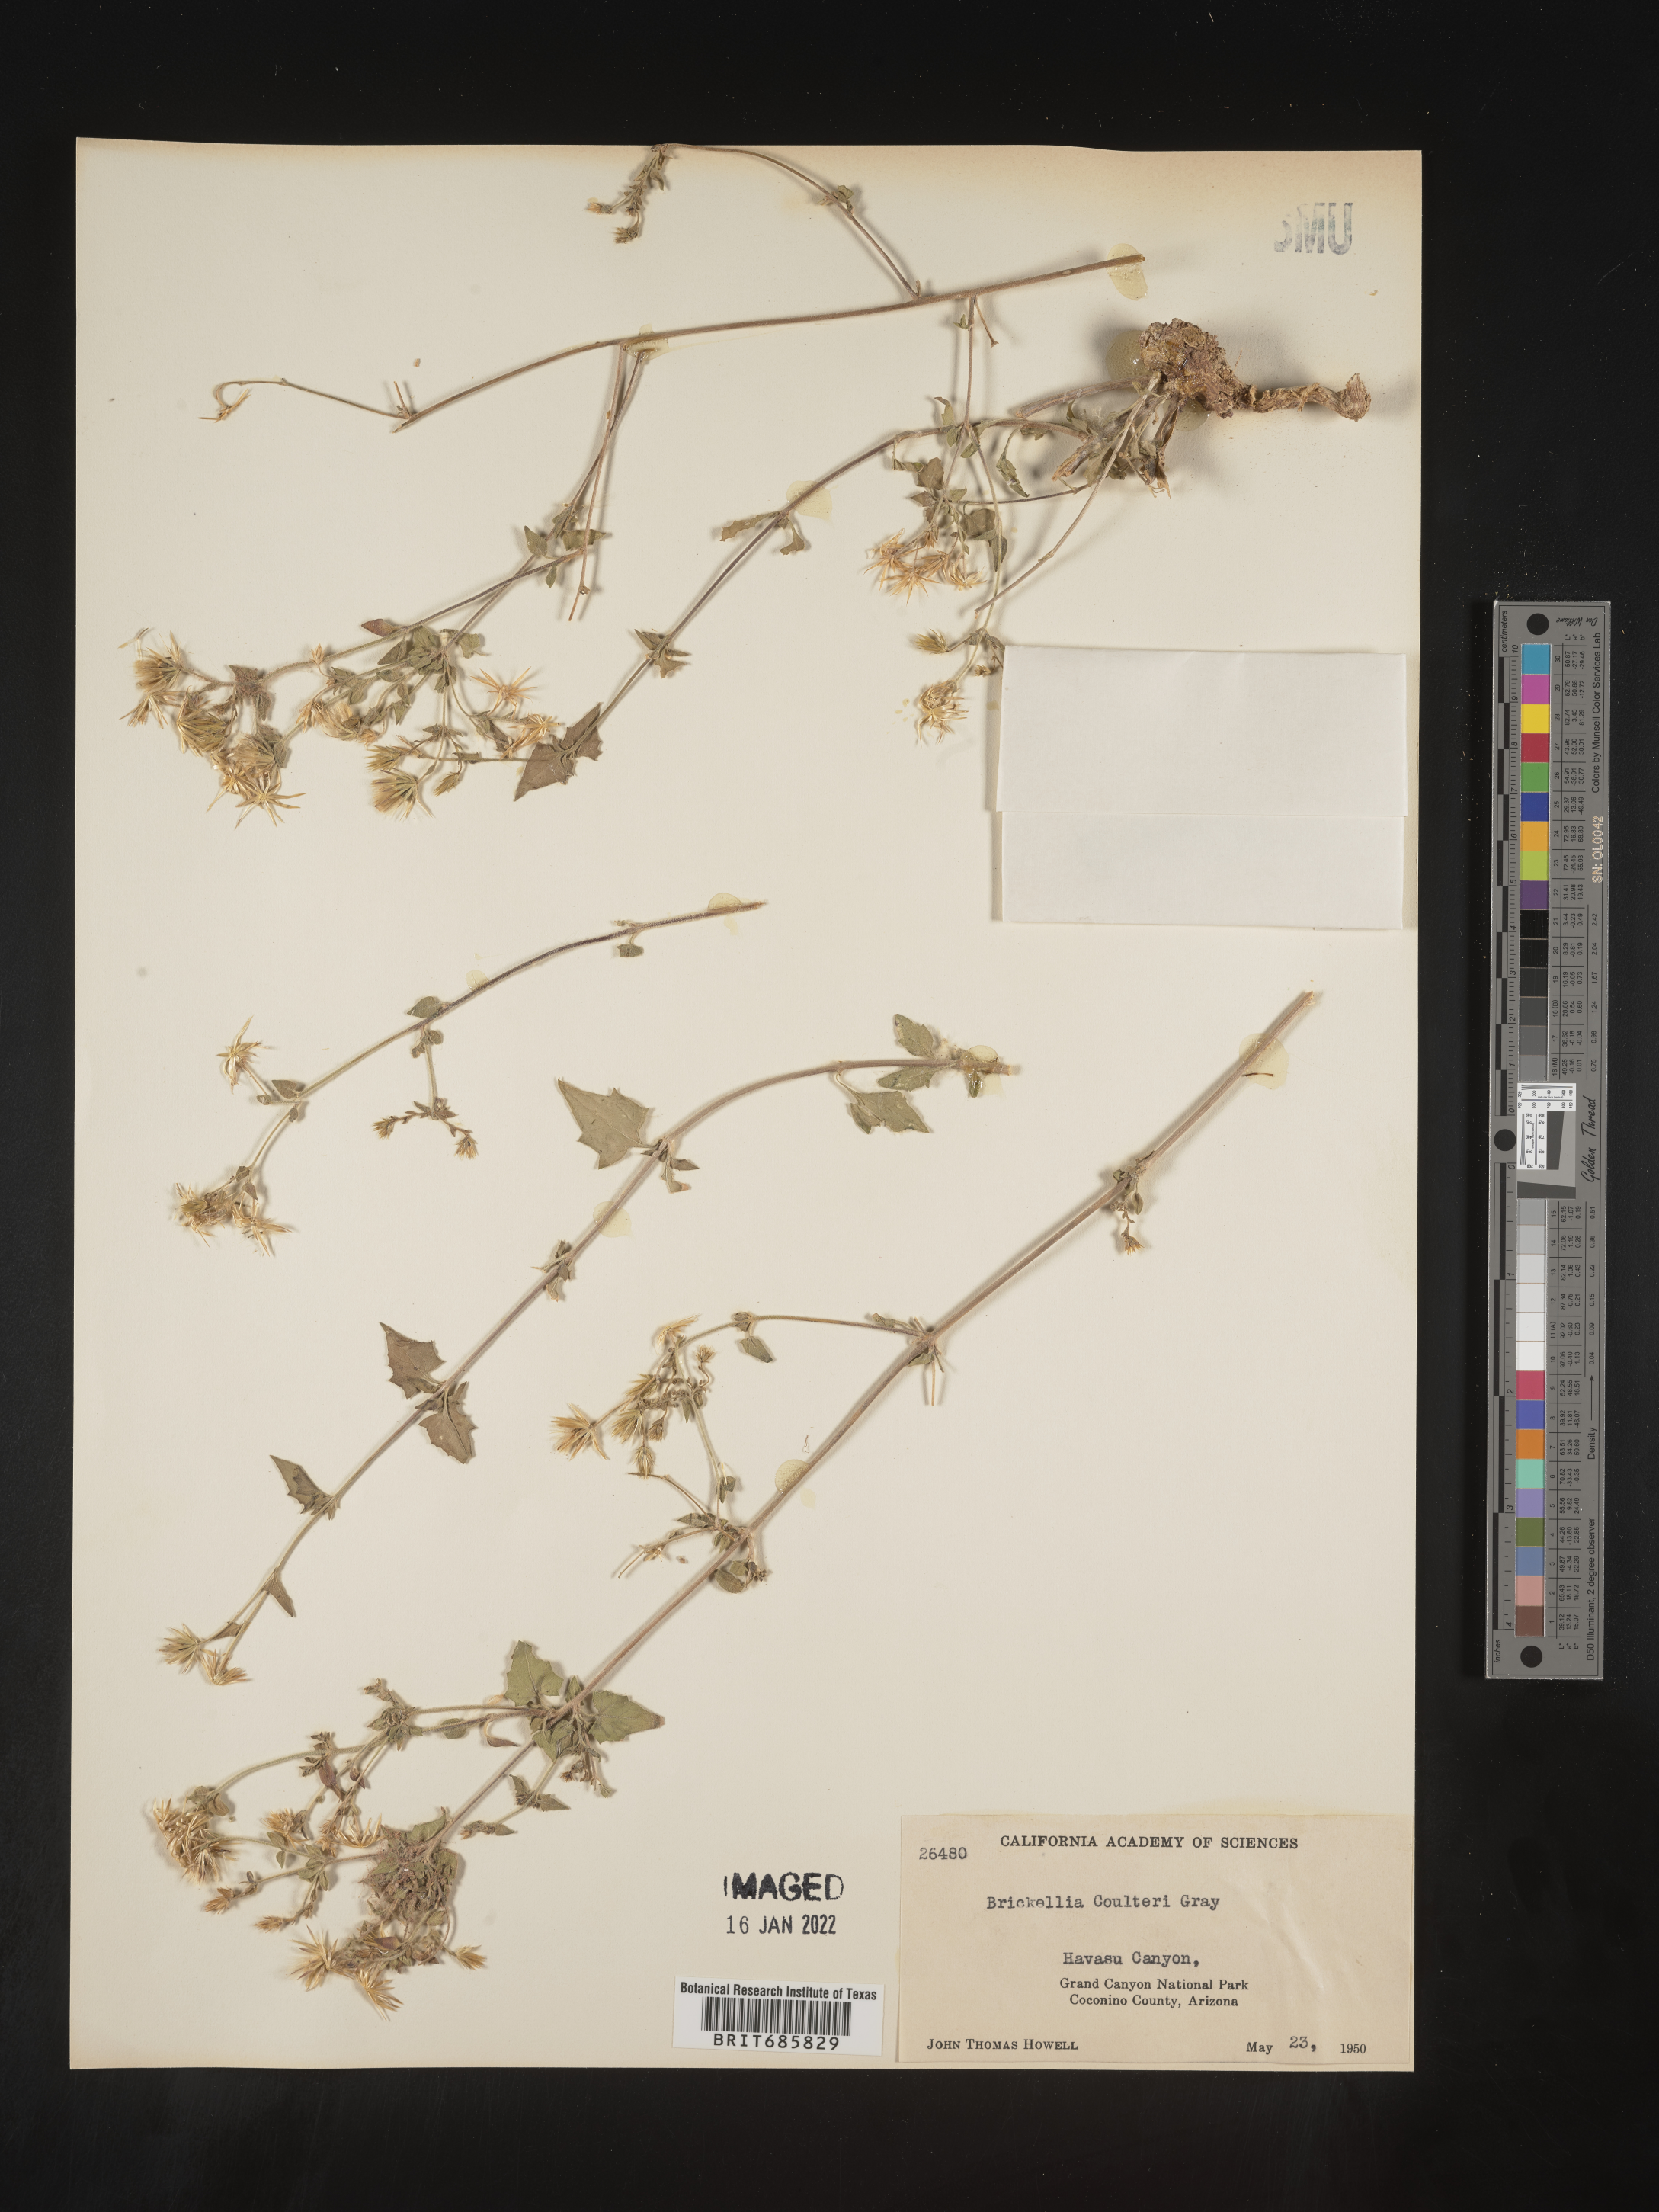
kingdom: Plantae
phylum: Tracheophyta
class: Magnoliopsida
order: Asterales
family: Asteraceae
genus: Brickellia
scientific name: Brickellia coulteri
